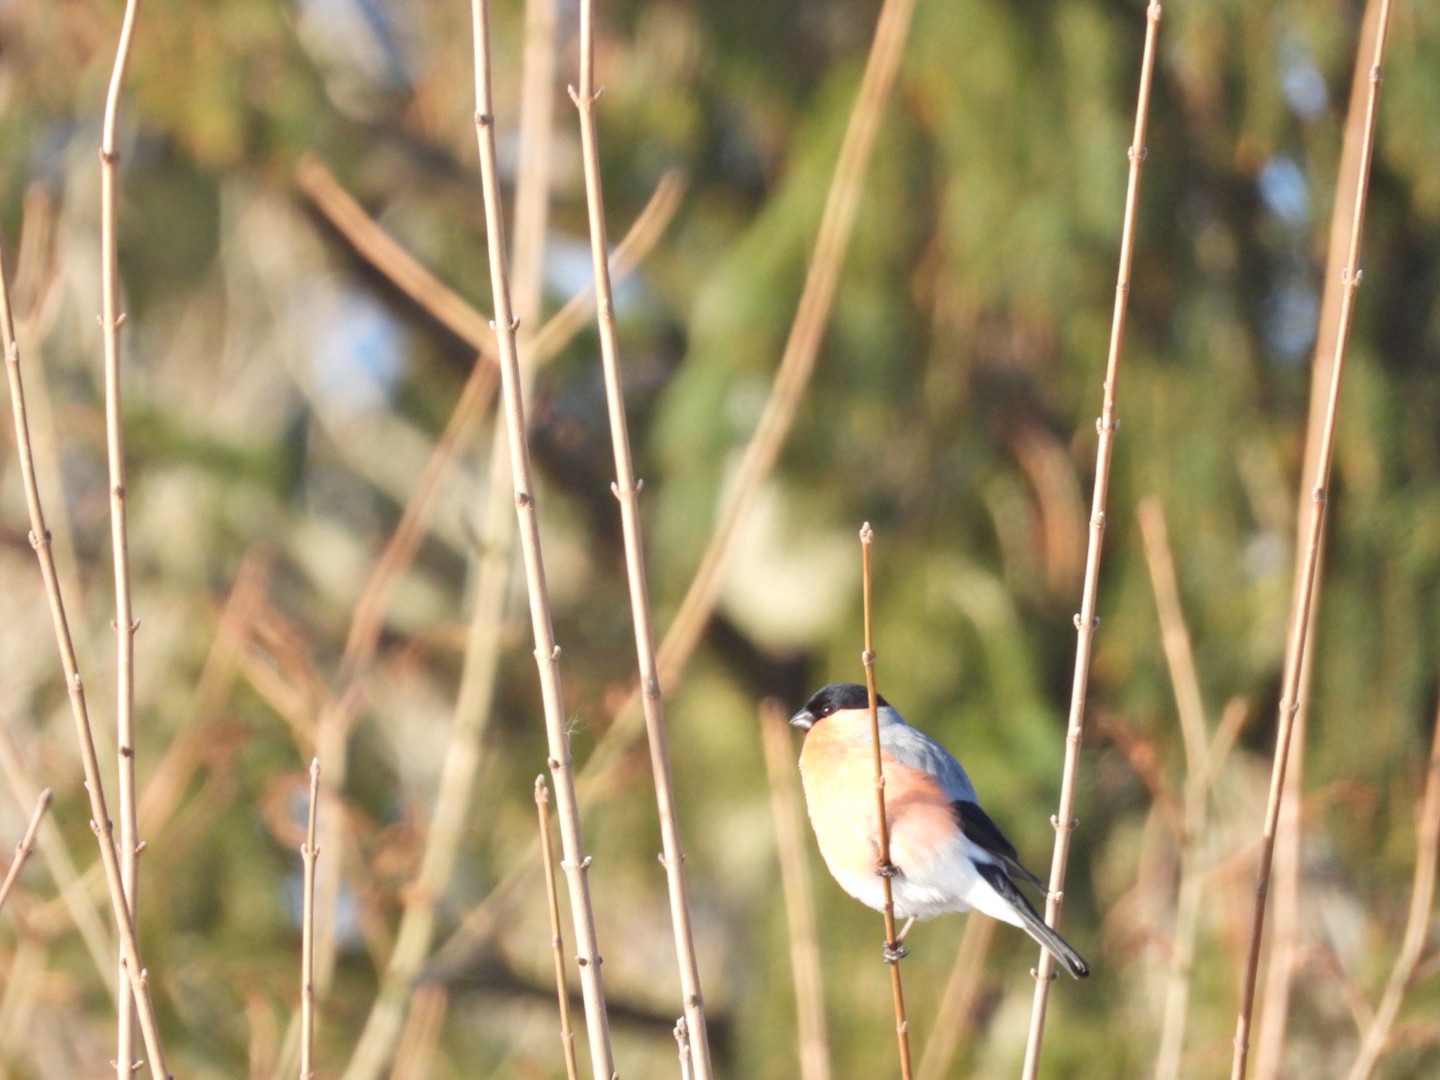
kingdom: Animalia
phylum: Chordata
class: Aves
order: Passeriformes
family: Fringillidae
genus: Pyrrhula
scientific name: Pyrrhula pyrrhula
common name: Dompap
